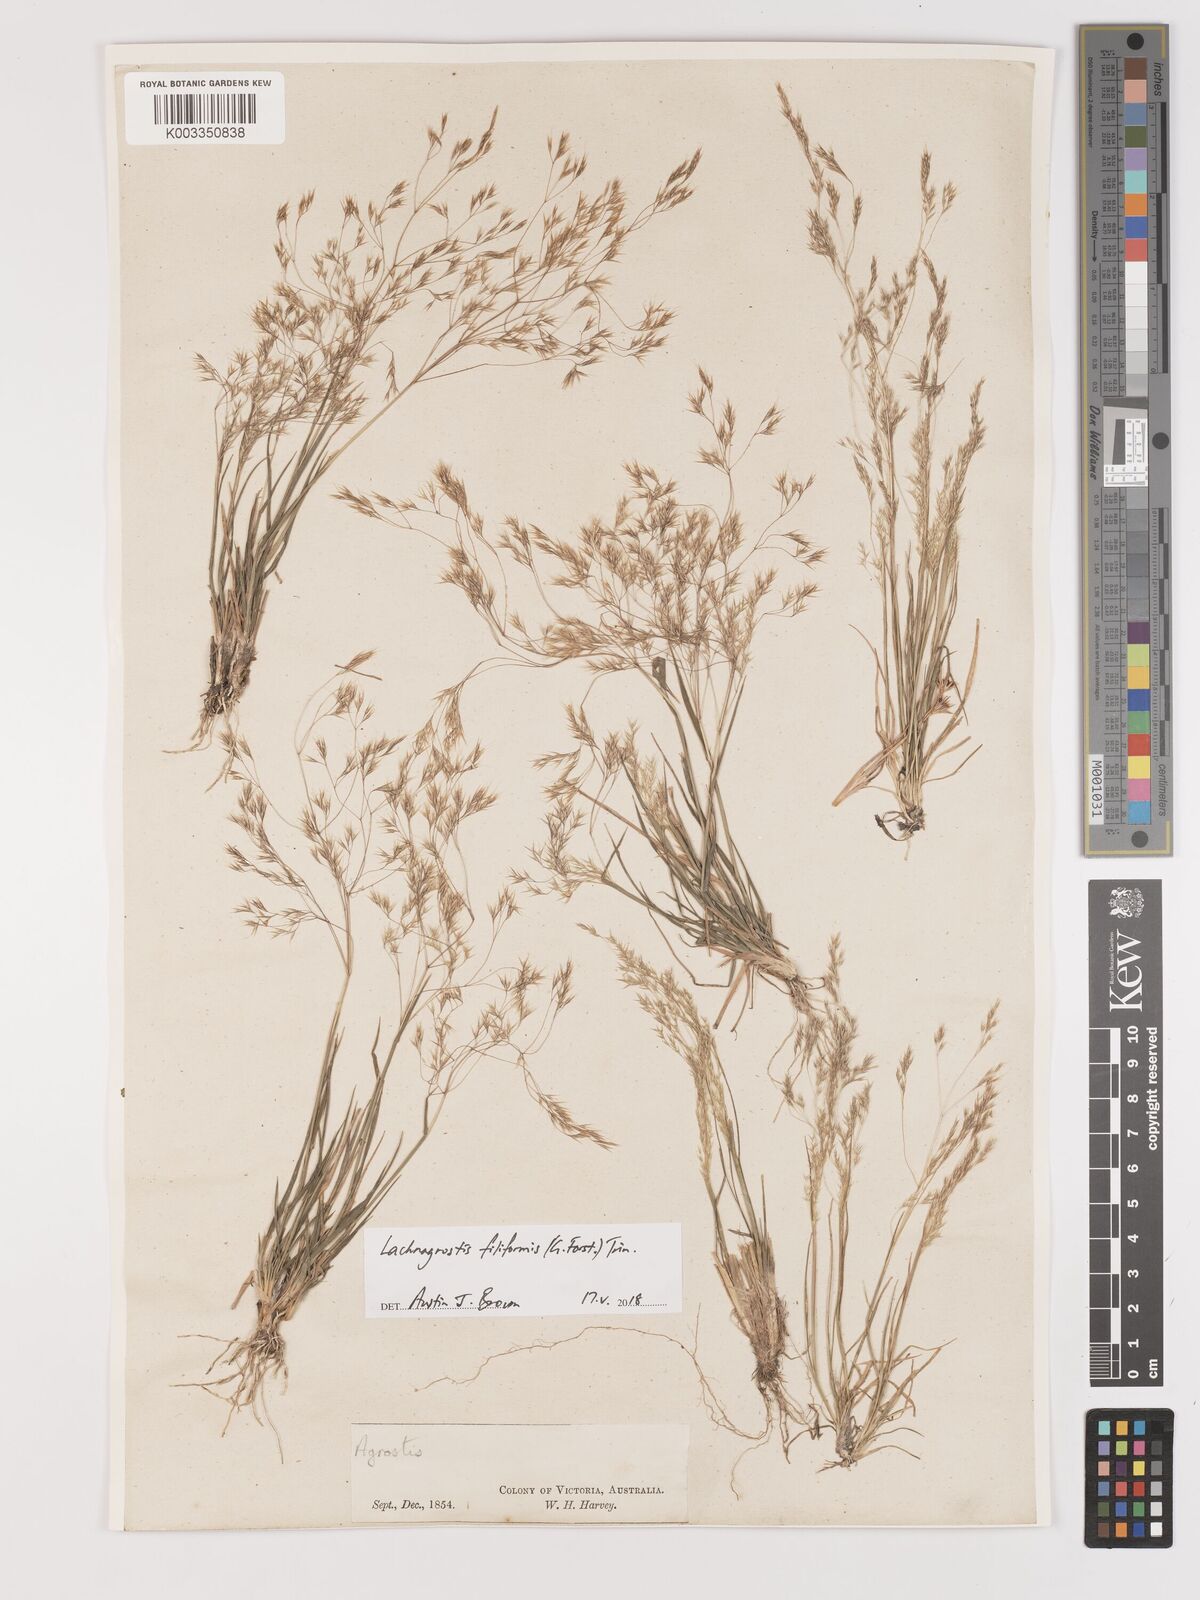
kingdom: Plantae
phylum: Tracheophyta
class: Liliopsida
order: Poales
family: Poaceae
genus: Lachnagrostis
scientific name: Lachnagrostis filiformis
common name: Bentgrass
